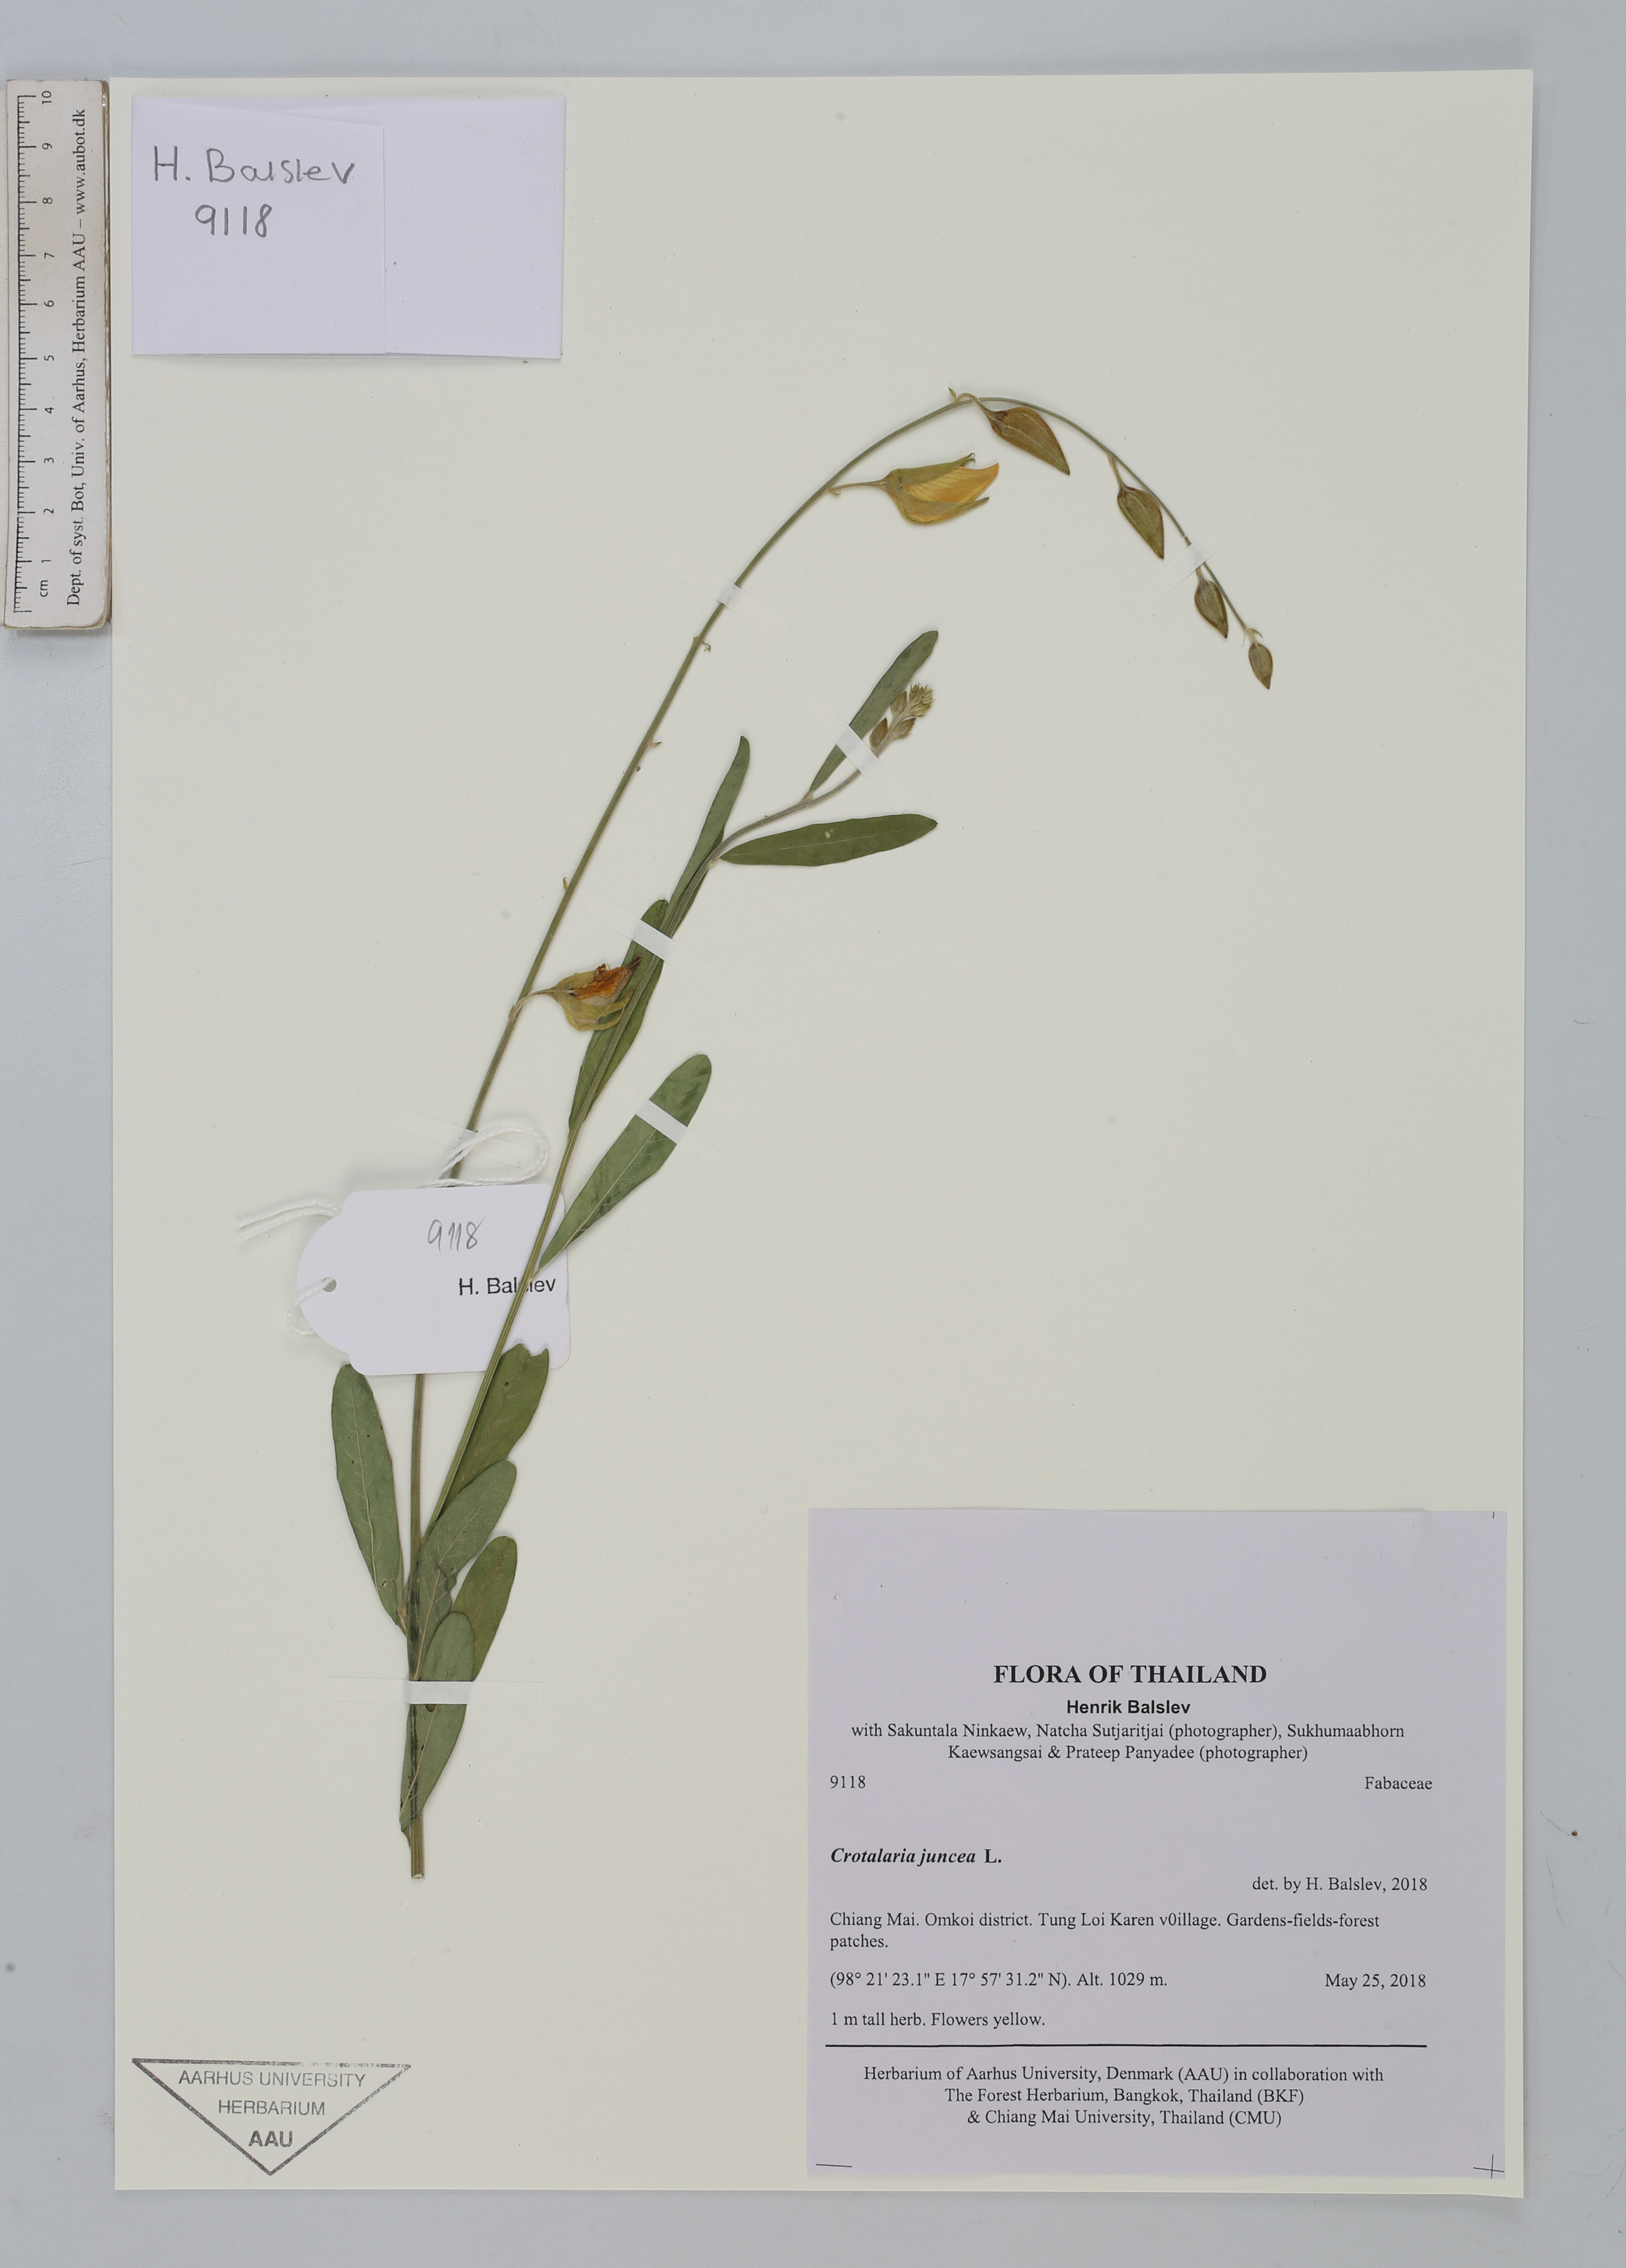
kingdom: Plantae
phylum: Tracheophyta
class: Magnoliopsida
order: Fabales
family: Fabaceae
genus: Crotalaria
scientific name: Crotalaria juncea
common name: Sunn hemp
